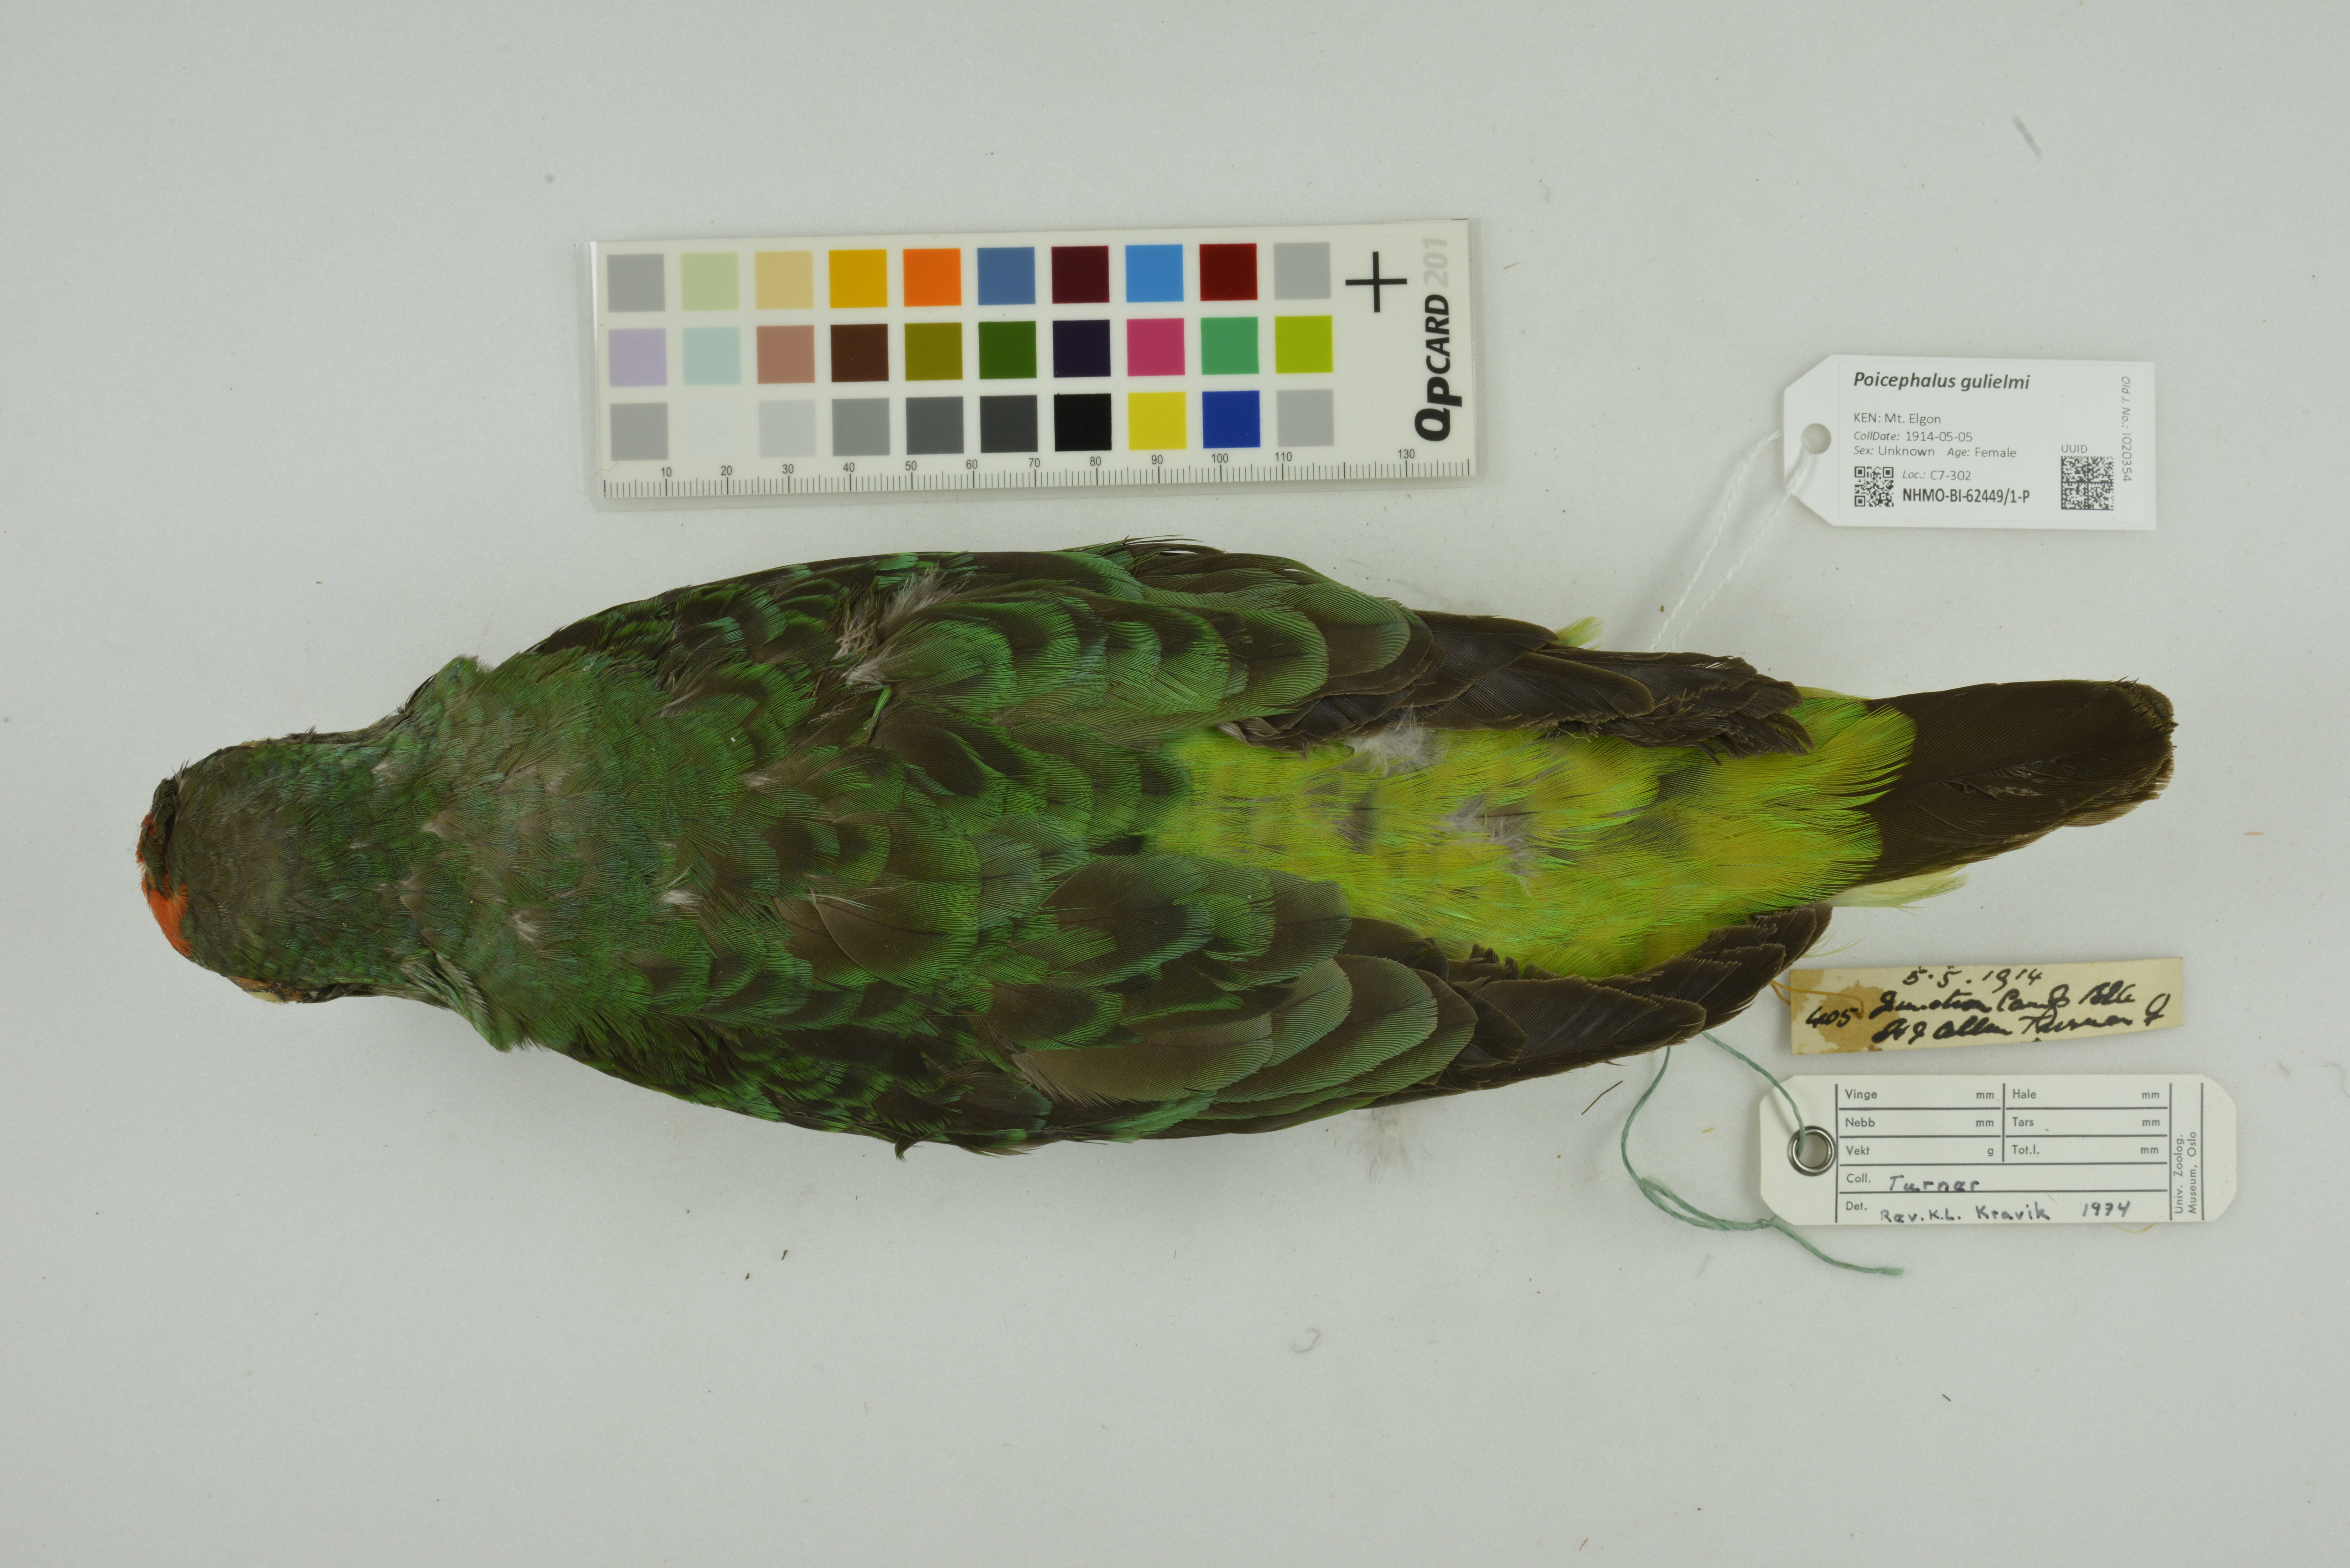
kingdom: Animalia
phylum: Chordata
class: Aves
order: Psittaciformes
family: Psittacidae
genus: Poicephalus
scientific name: Poicephalus gulielmi
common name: Red-fronted parrot
